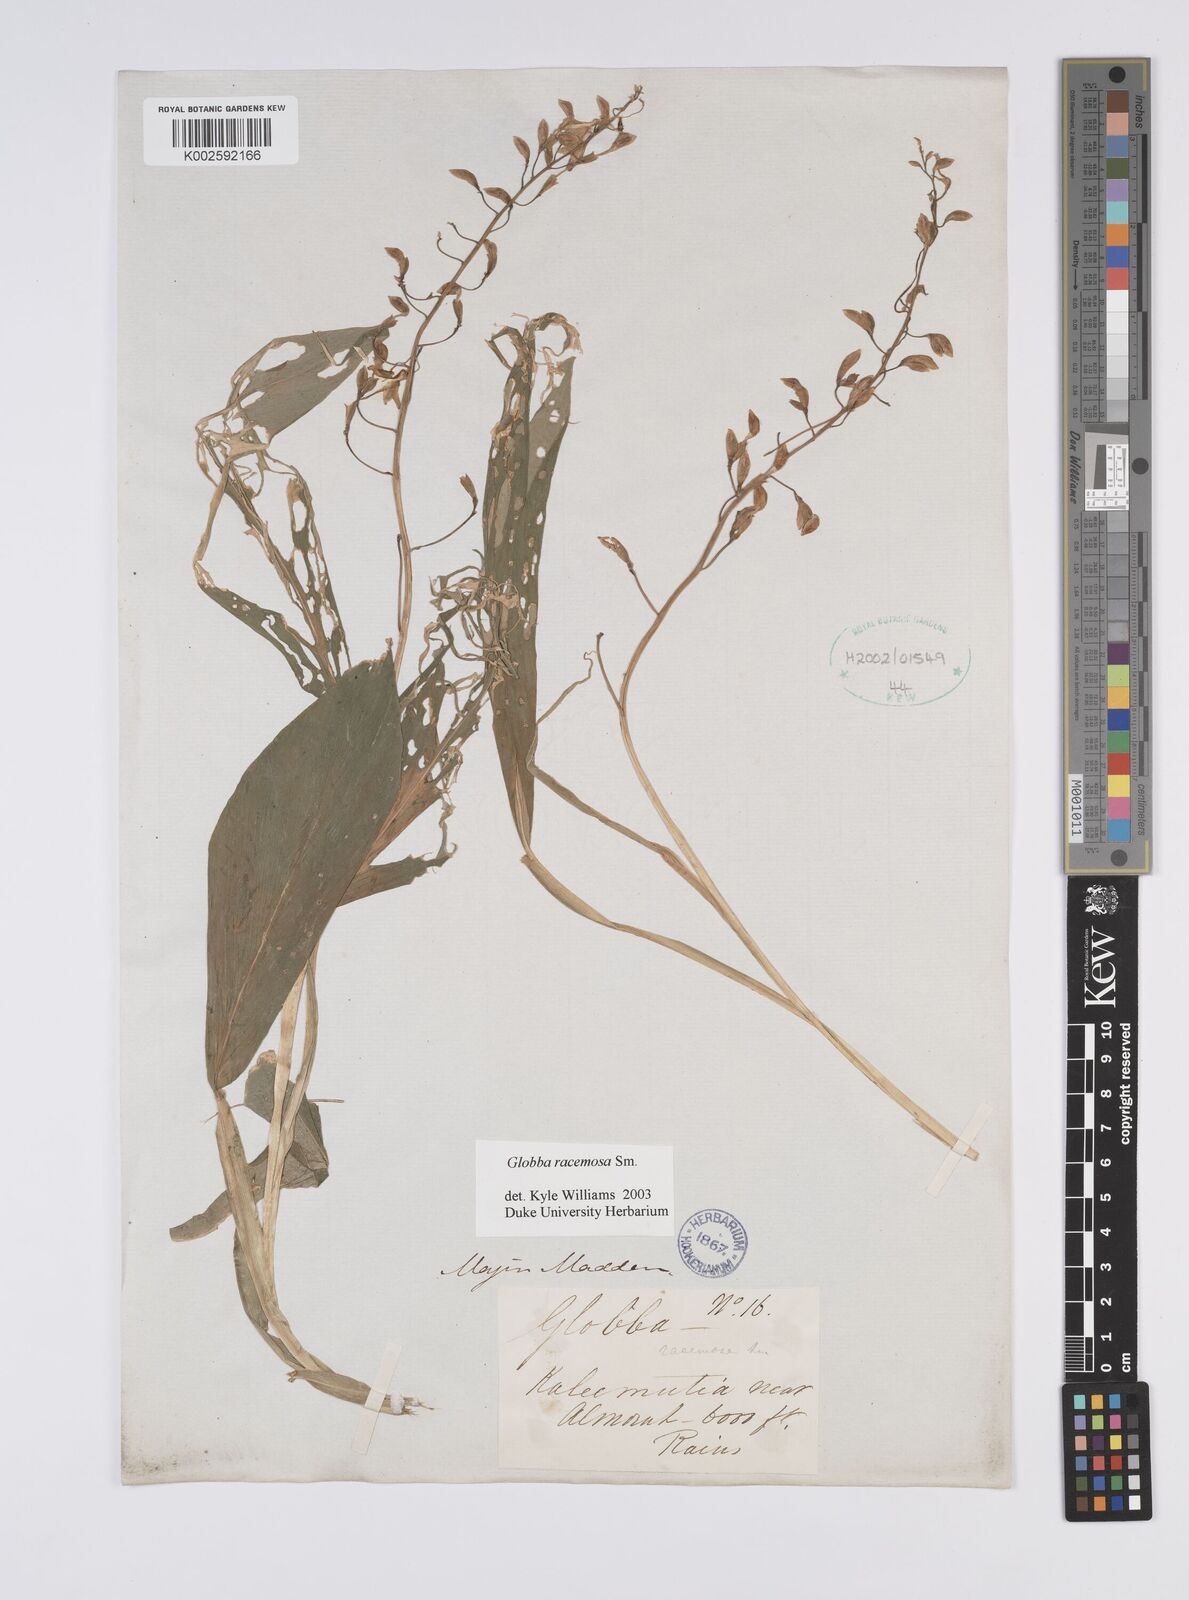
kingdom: Plantae
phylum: Tracheophyta
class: Liliopsida
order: Zingiberales
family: Zingiberaceae
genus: Globba
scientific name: Globba racemosa
